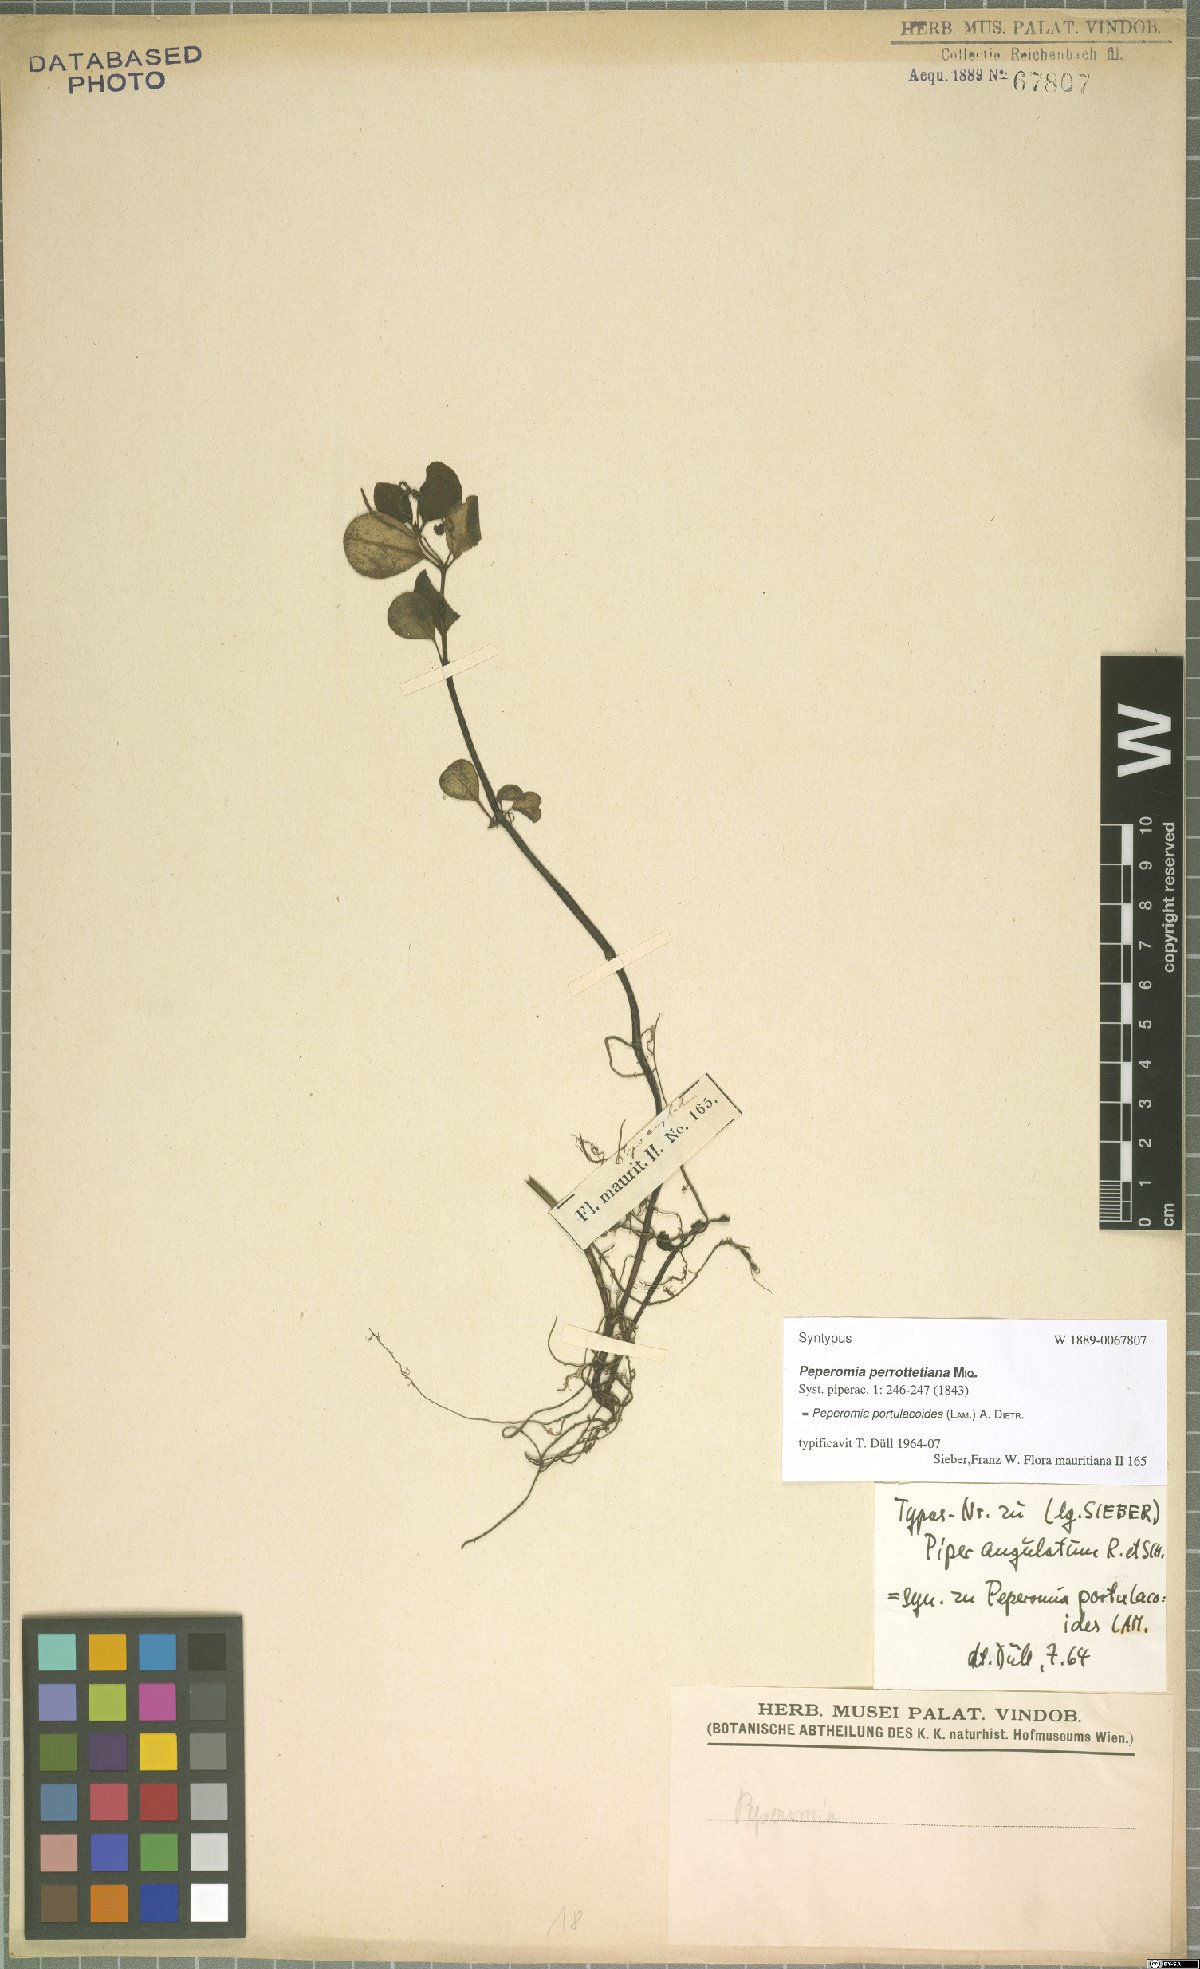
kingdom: Plantae
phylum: Tracheophyta
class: Magnoliopsida
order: Piperales
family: Piperaceae
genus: Peperomia
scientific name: Peperomia portulacoides
